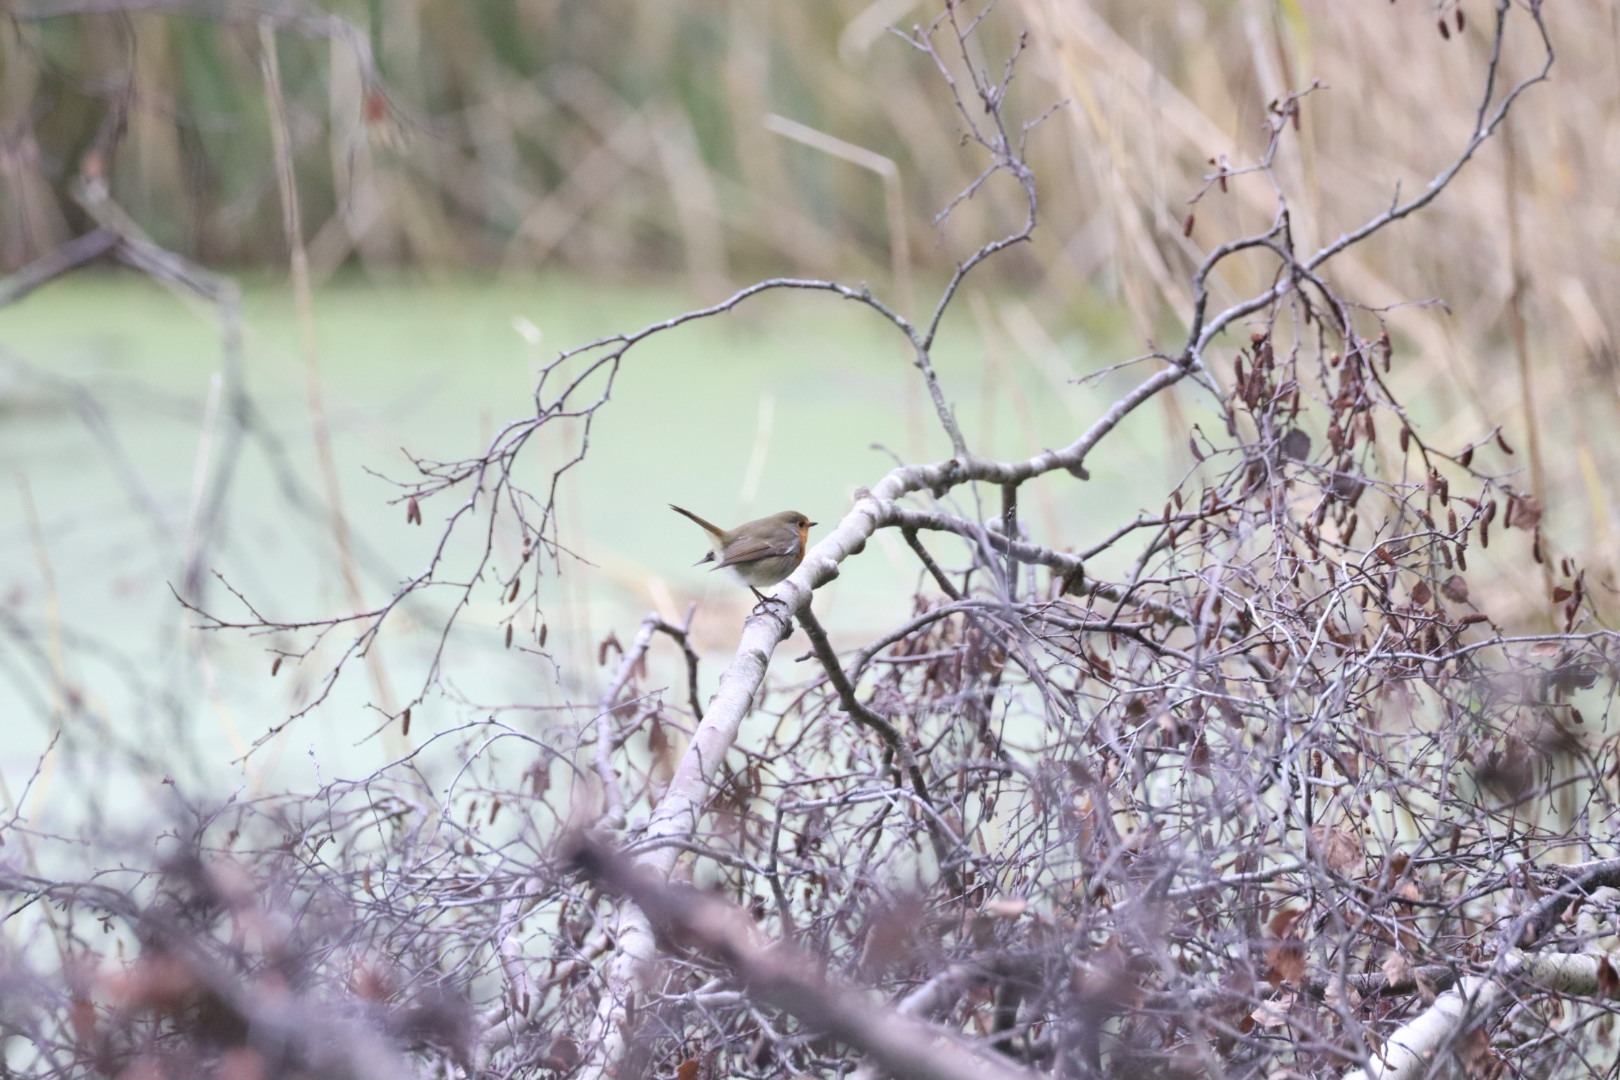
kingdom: Animalia
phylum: Chordata
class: Aves
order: Passeriformes
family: Muscicapidae
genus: Erithacus
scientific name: Erithacus rubecula
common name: Rødhals/rødkælk
